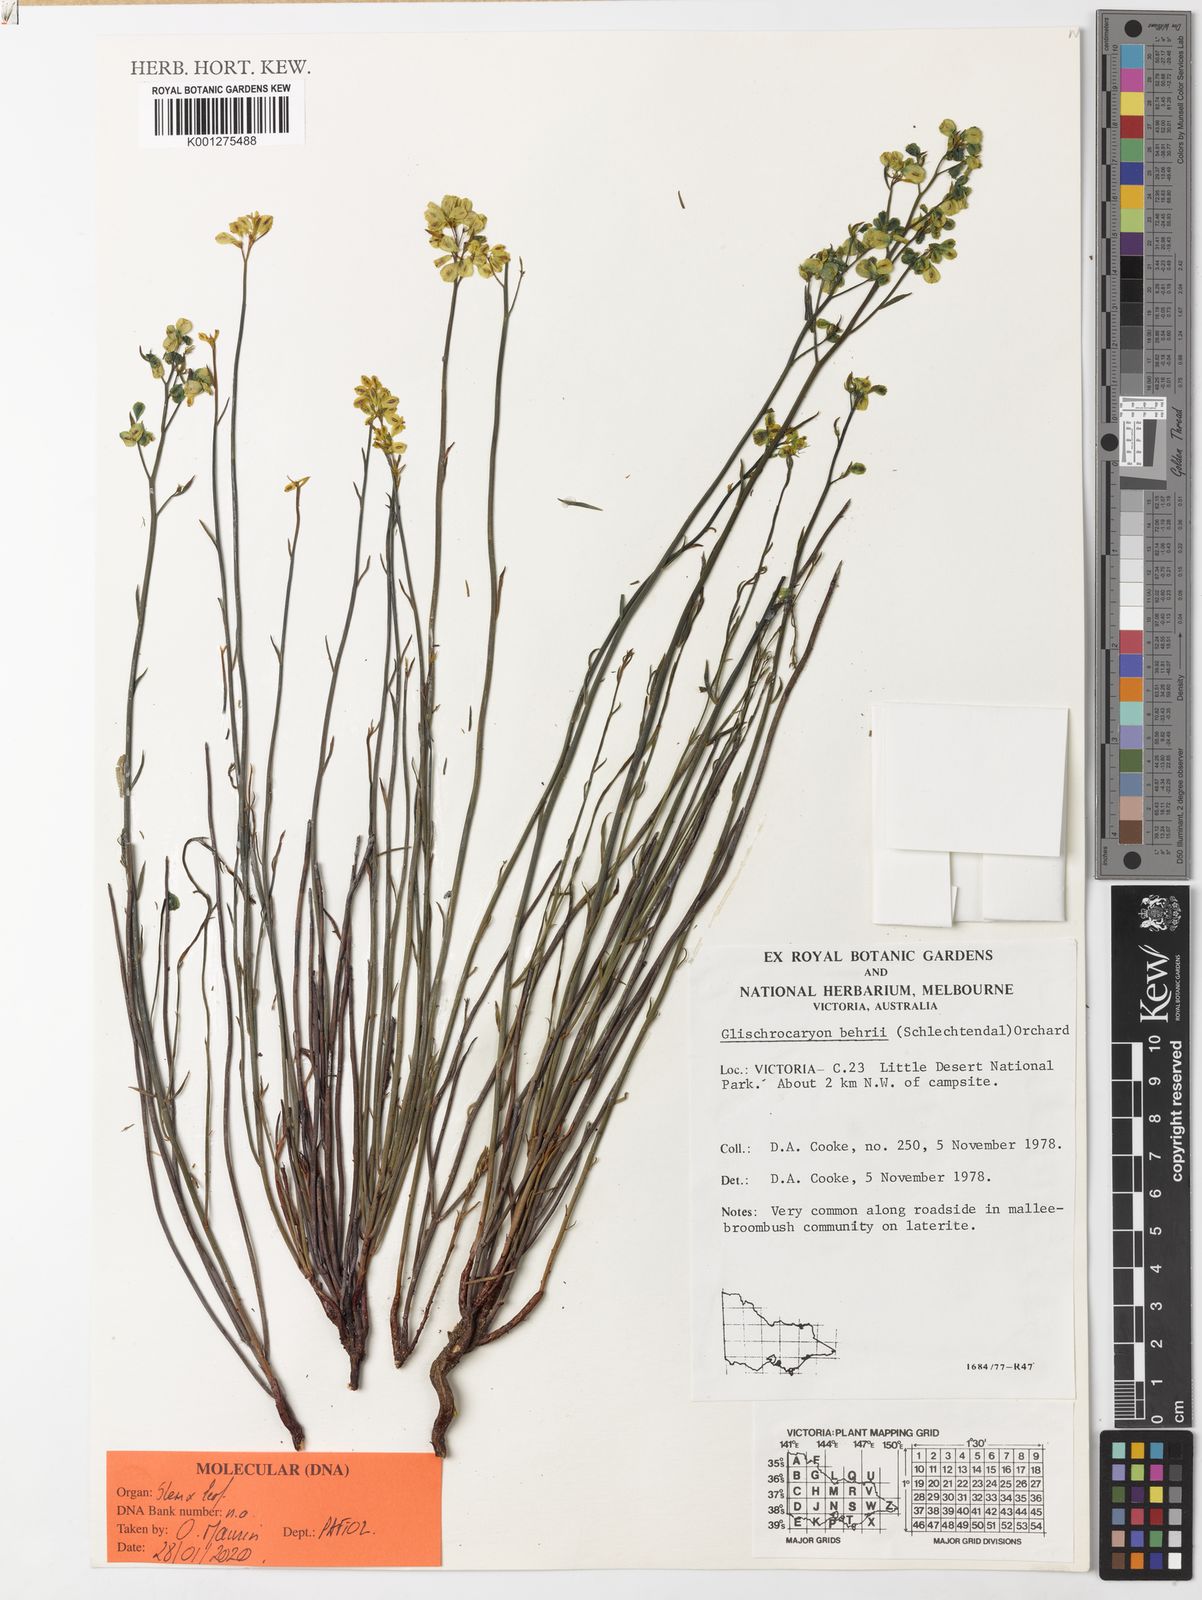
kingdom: Plantae
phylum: Tracheophyta
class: Magnoliopsida
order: Saxifragales
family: Haloragaceae
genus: Glischrocaryon
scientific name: Glischrocaryon behrii
